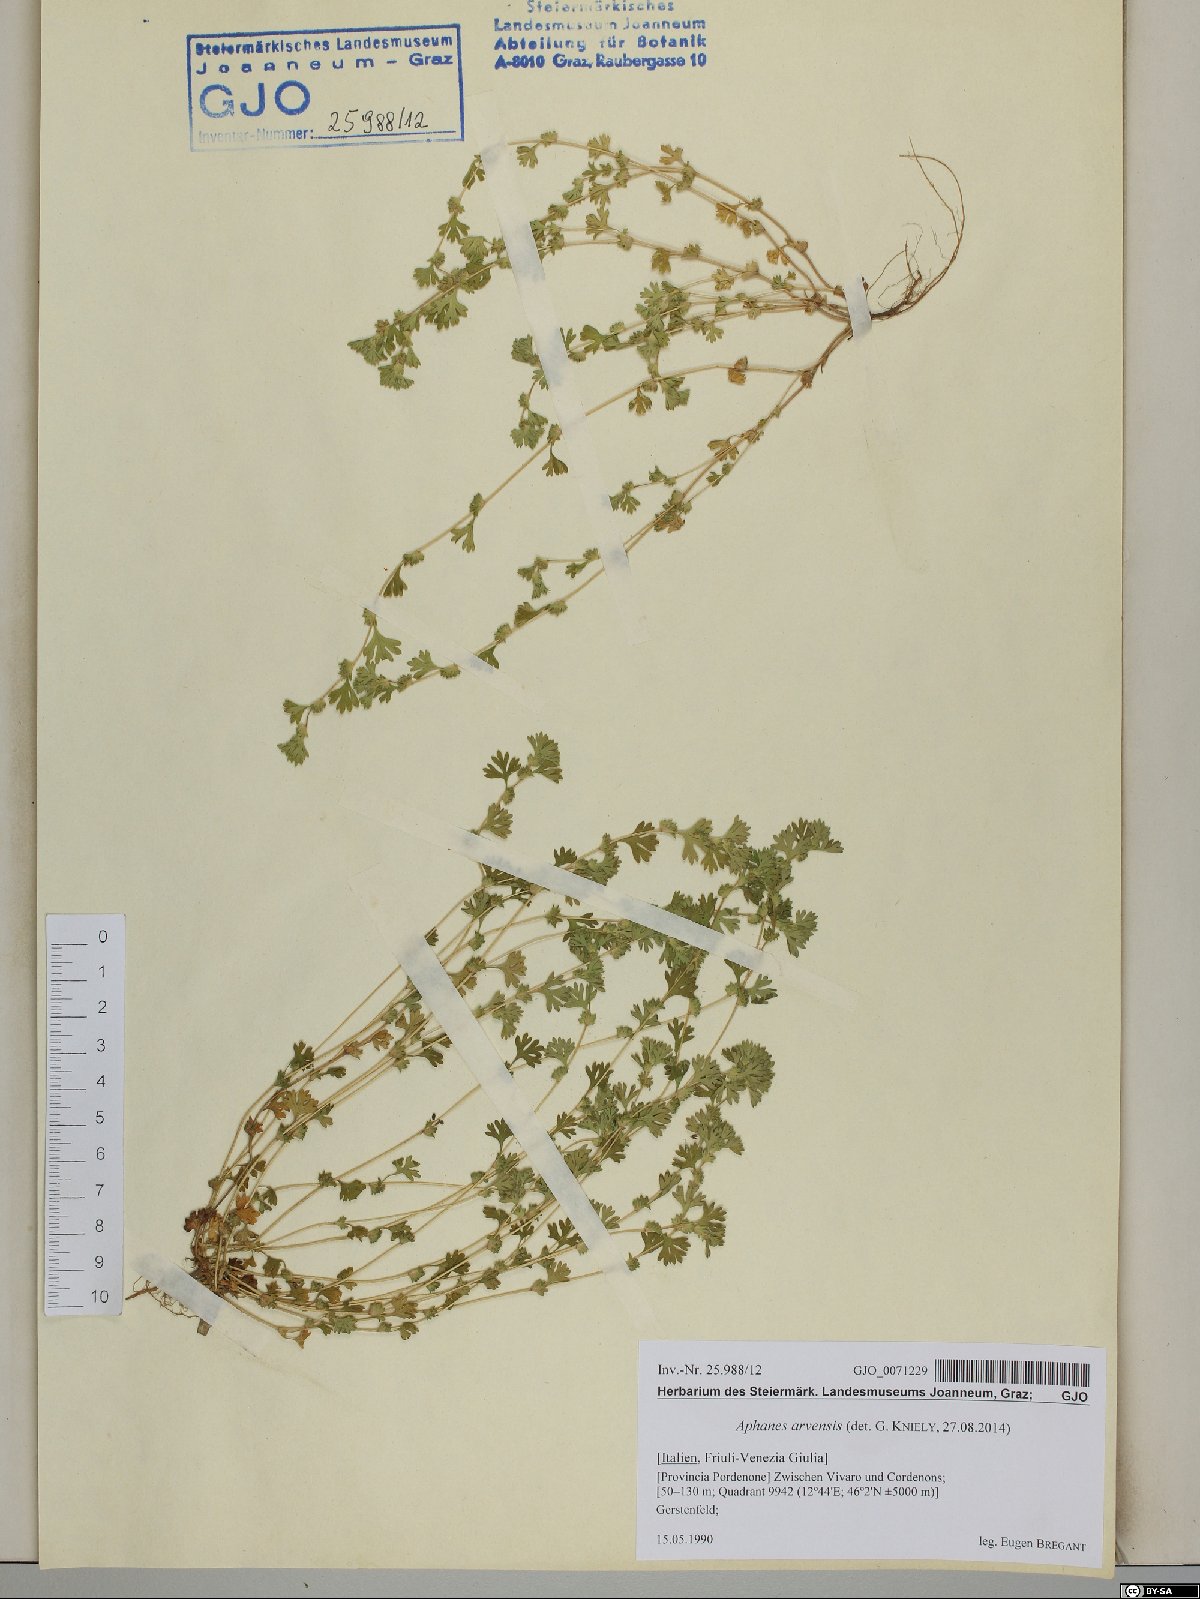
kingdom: Plantae
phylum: Tracheophyta
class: Magnoliopsida
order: Rosales
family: Rosaceae
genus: Aphanes
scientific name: Aphanes arvensis
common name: Parsley-piert
